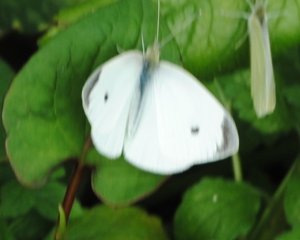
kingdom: Animalia
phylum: Arthropoda
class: Insecta
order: Lepidoptera
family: Pieridae
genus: Pieris
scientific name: Pieris rapae
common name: Cabbage White
